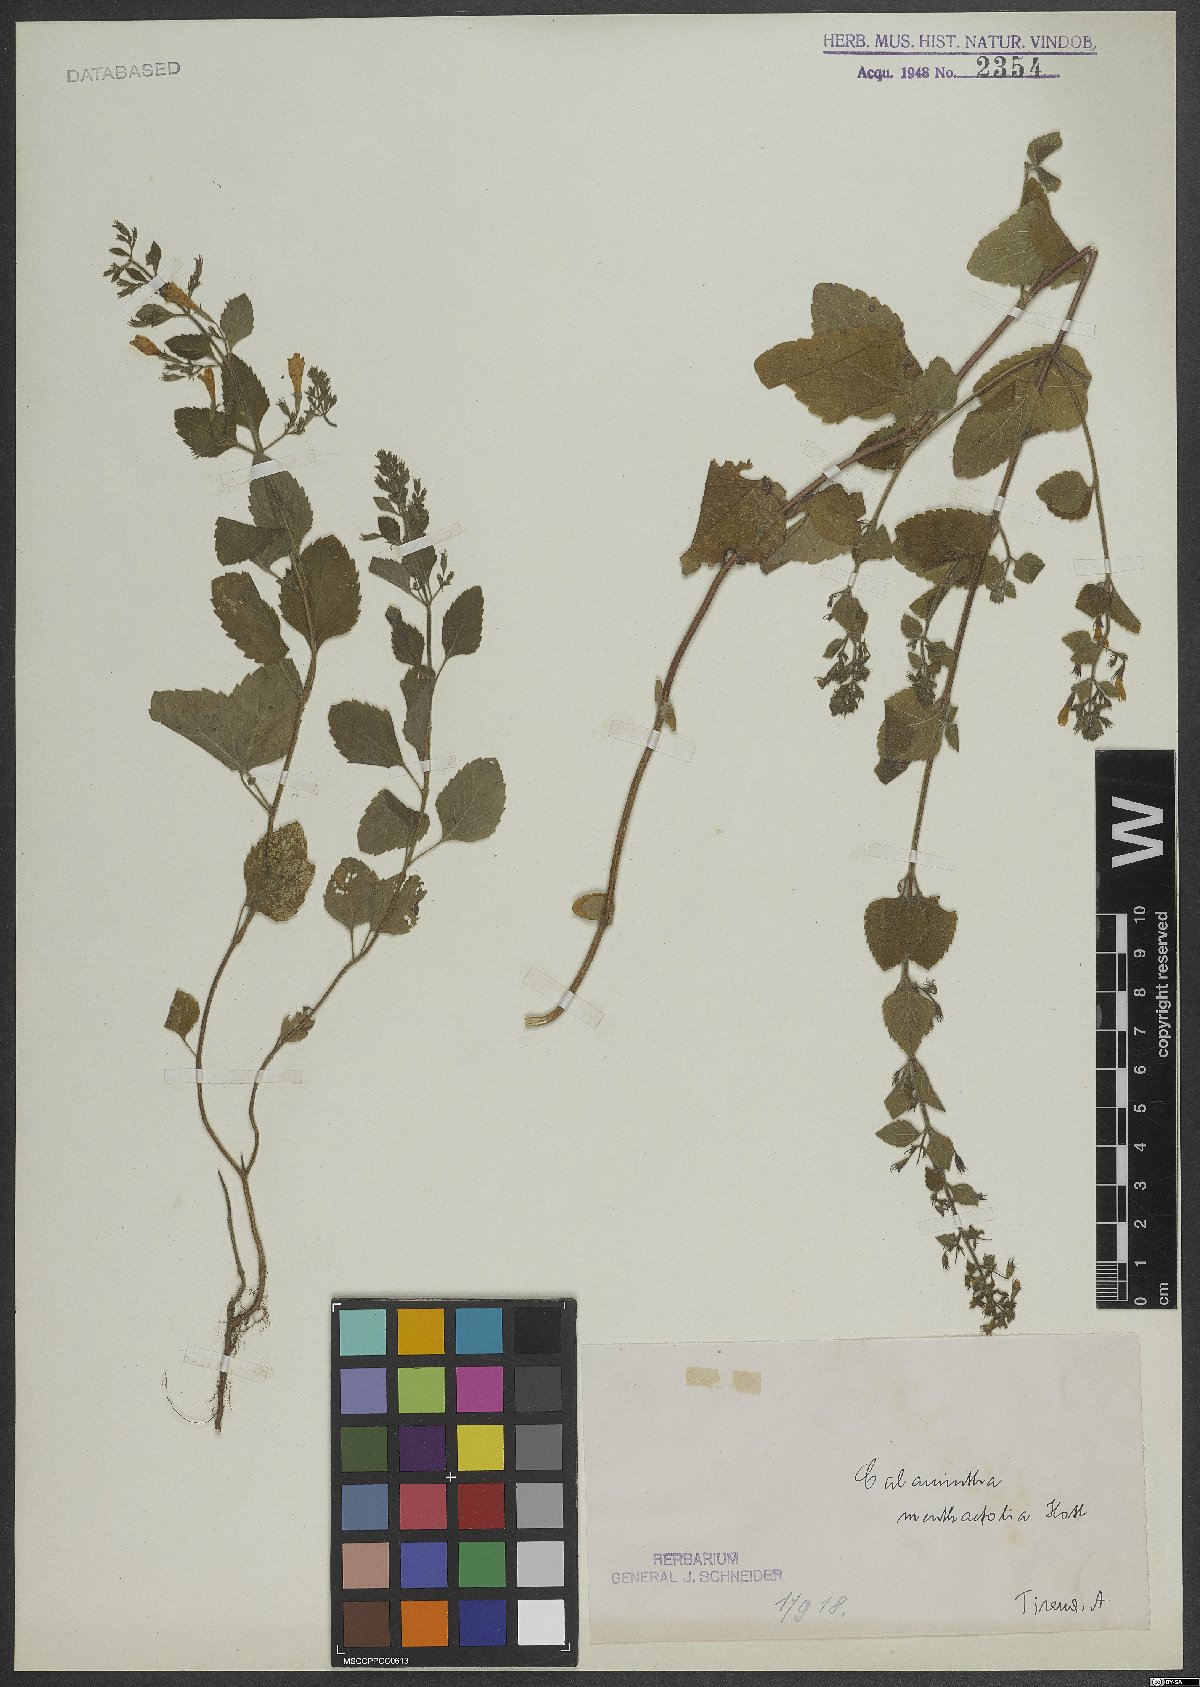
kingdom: Plantae
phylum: Tracheophyta
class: Magnoliopsida
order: Lamiales
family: Lamiaceae
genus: Calamintha
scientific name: Calamintha
